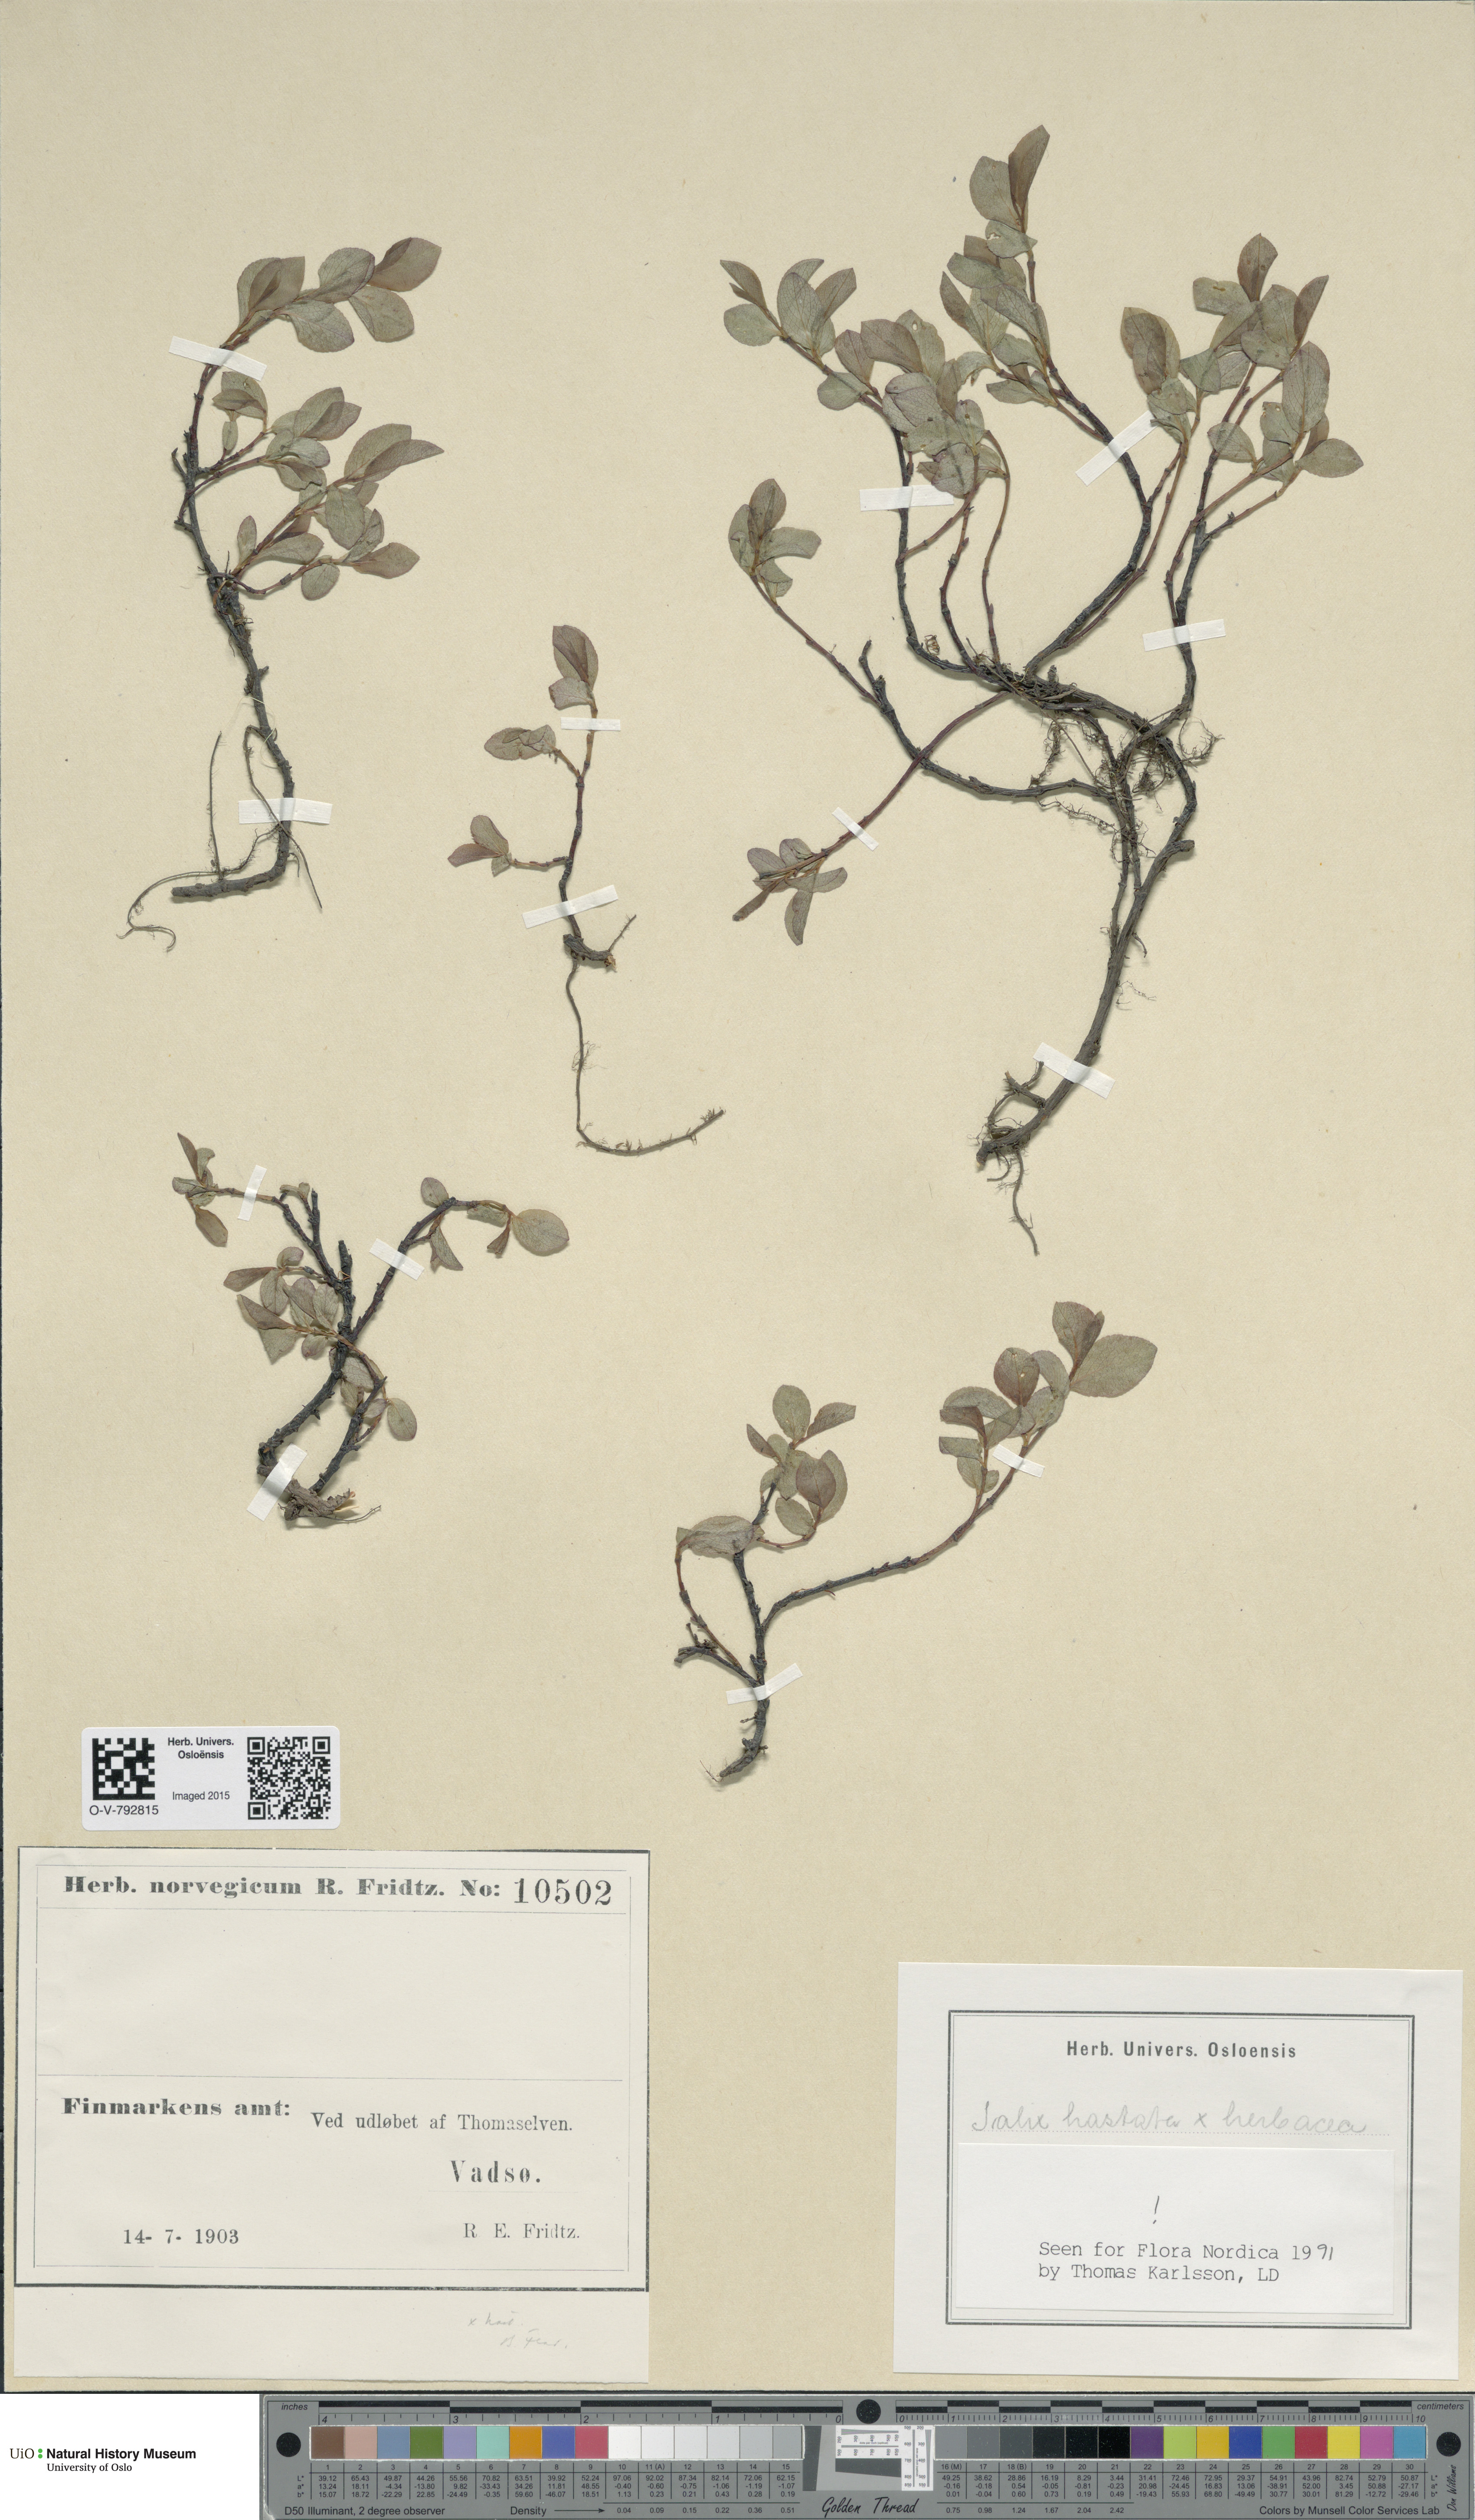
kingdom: Plantae
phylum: Tracheophyta
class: Magnoliopsida
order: Malpighiales
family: Salicaceae
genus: Salix
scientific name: Salix
